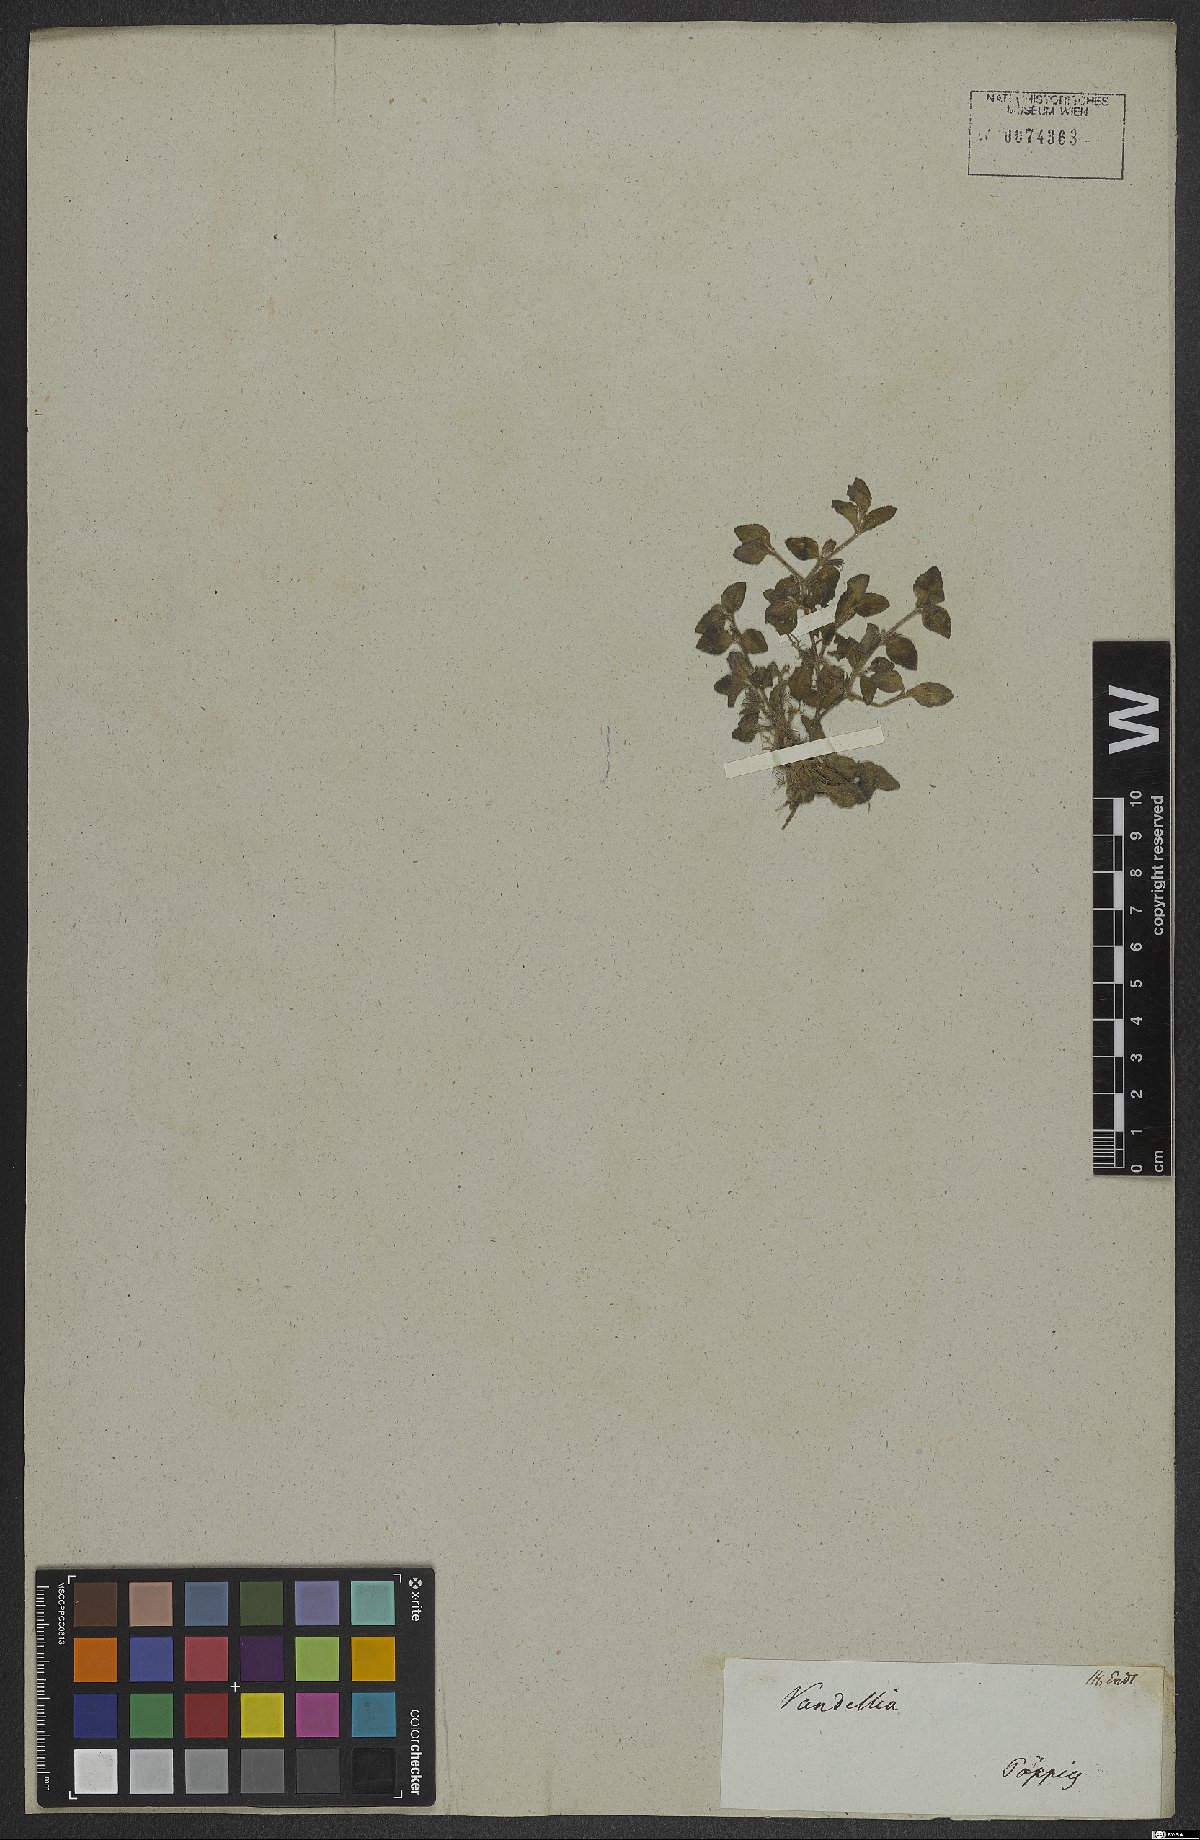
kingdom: Plantae
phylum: Tracheophyta
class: Magnoliopsida
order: Lamiales
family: Linderniaceae
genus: Vandellia
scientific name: Vandellia diffusa
